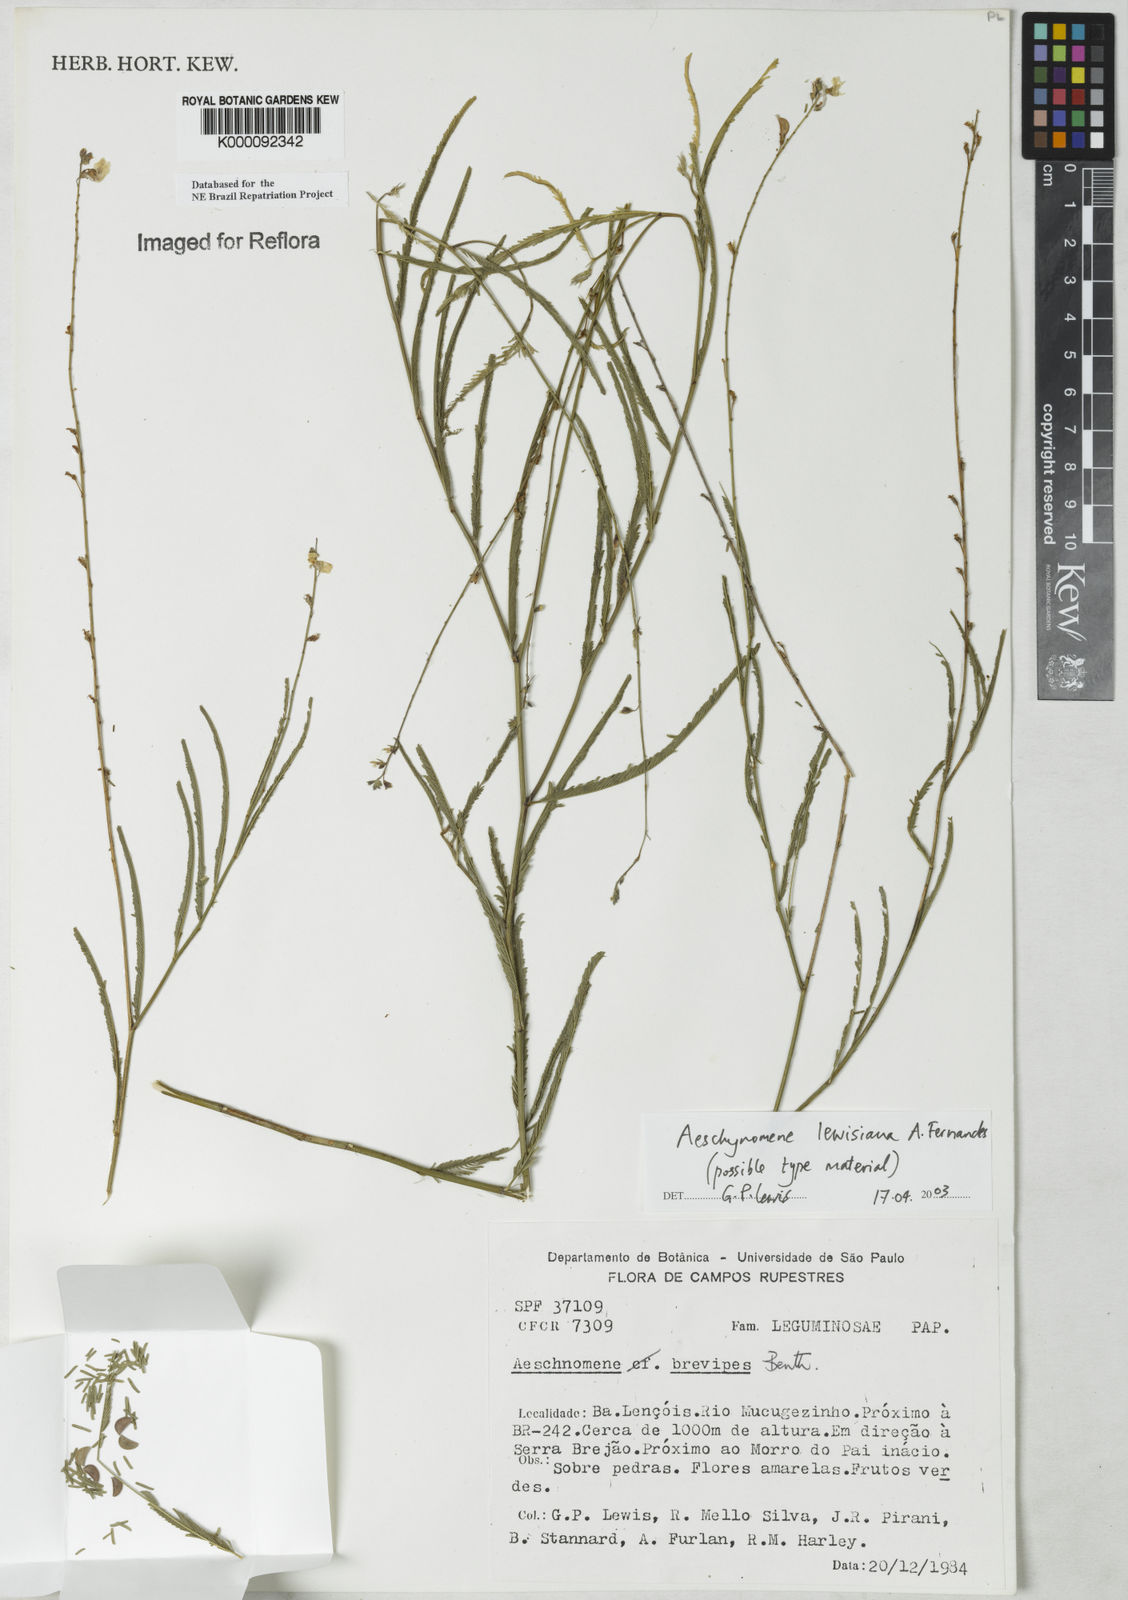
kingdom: Plantae
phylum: Tracheophyta
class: Magnoliopsida
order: Fabales
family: Fabaceae
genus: Ctenodon
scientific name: Ctenodon lewisianus
